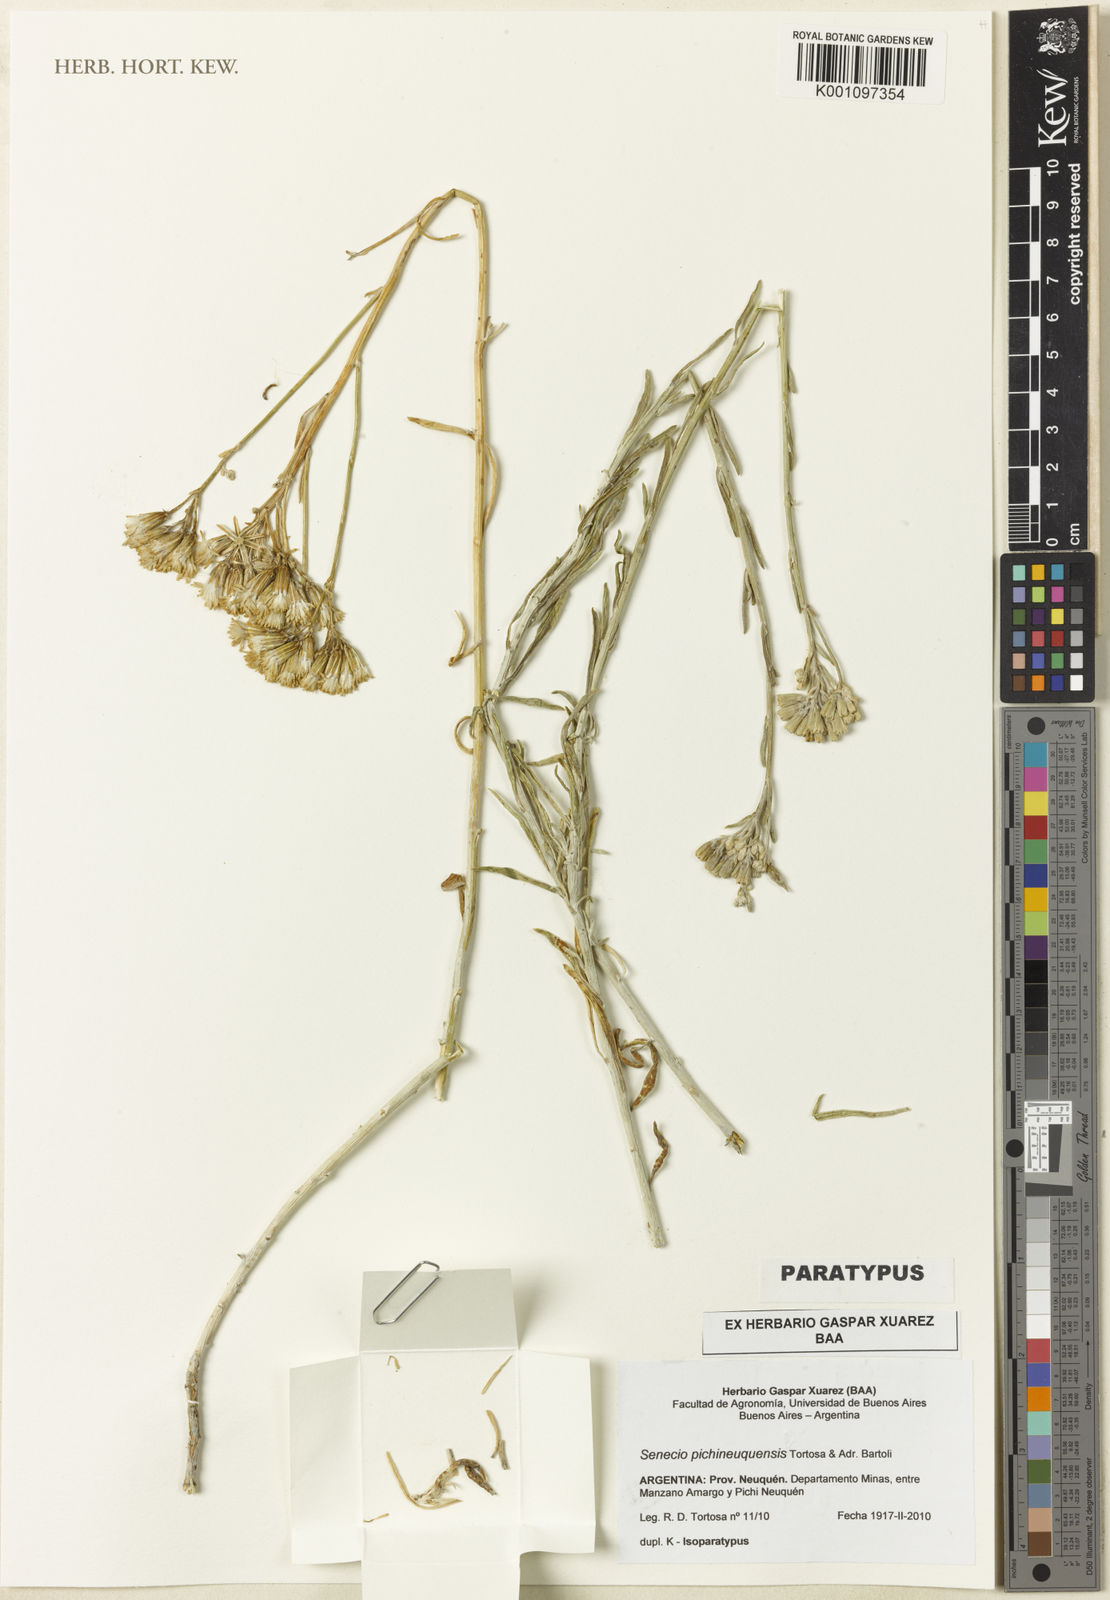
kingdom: Plantae
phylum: Tracheophyta
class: Magnoliopsida
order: Asterales
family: Asteraceae
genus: Senecio
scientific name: Senecio pichineuquensis
